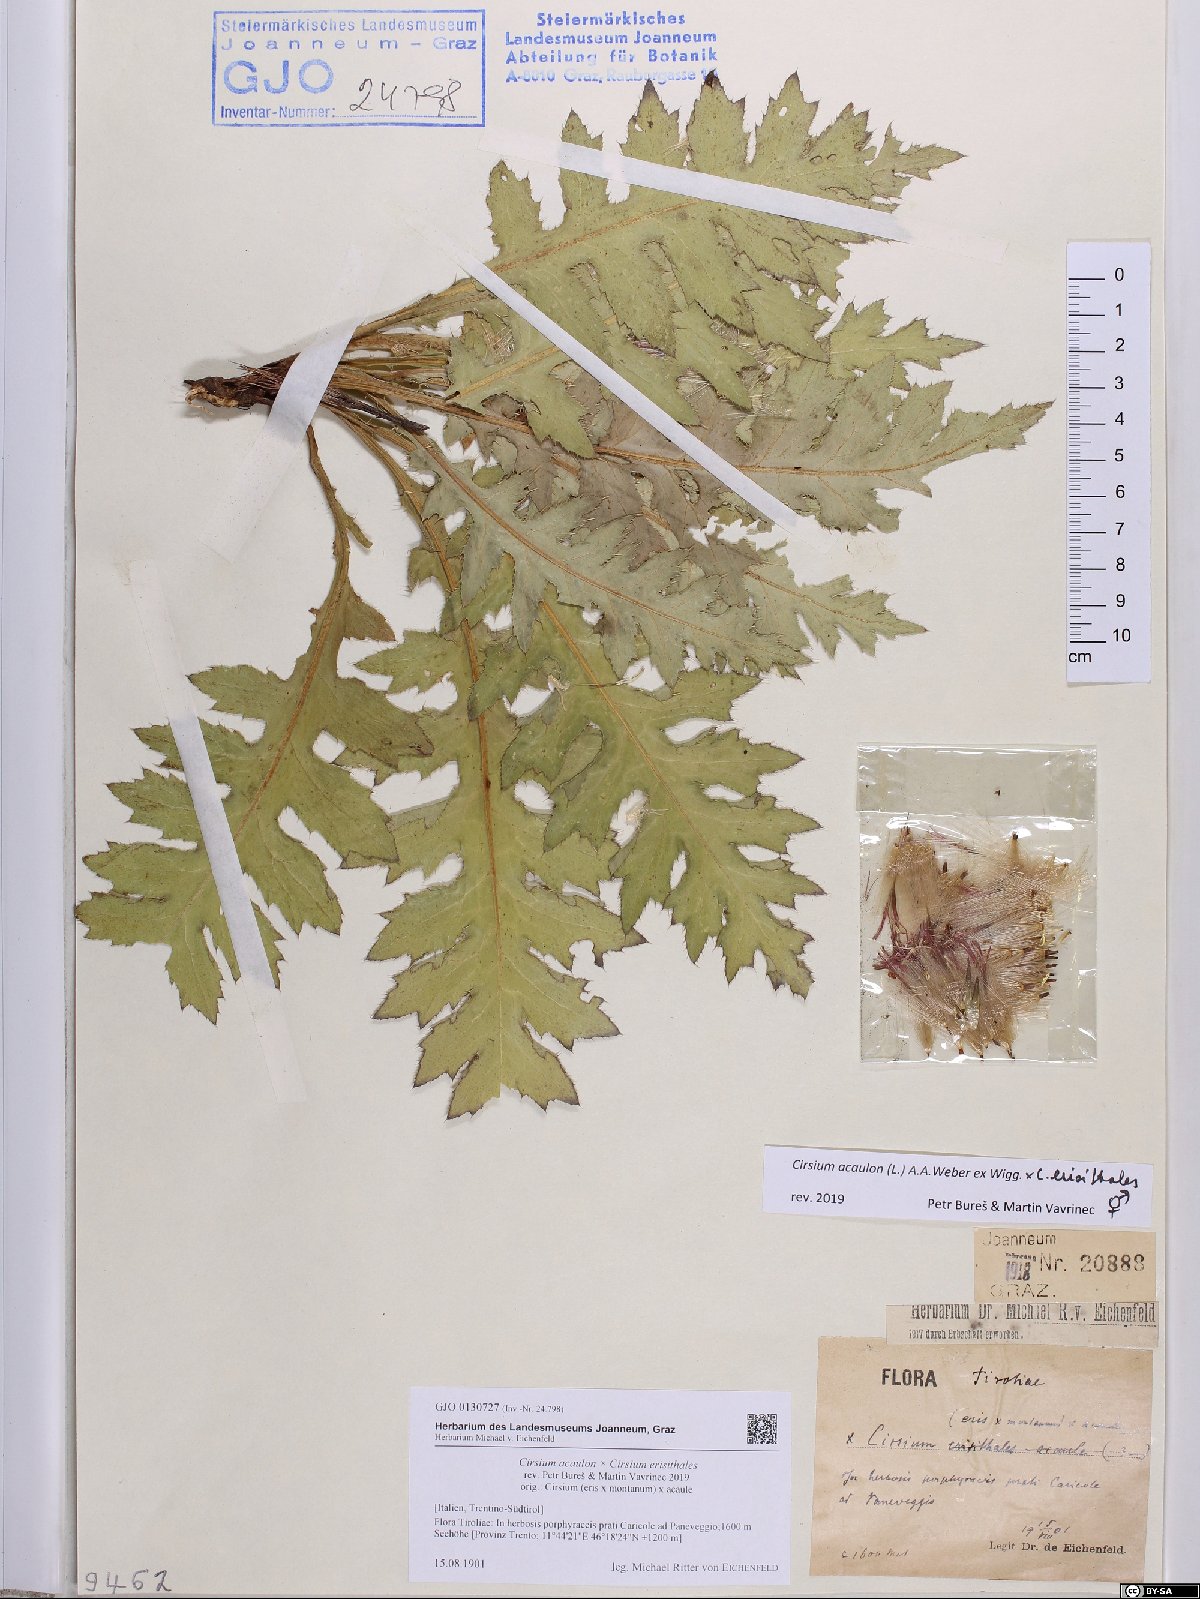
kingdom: Plantae
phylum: Tracheophyta
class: Magnoliopsida
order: Asterales
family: Asteraceae
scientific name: Asteraceae
